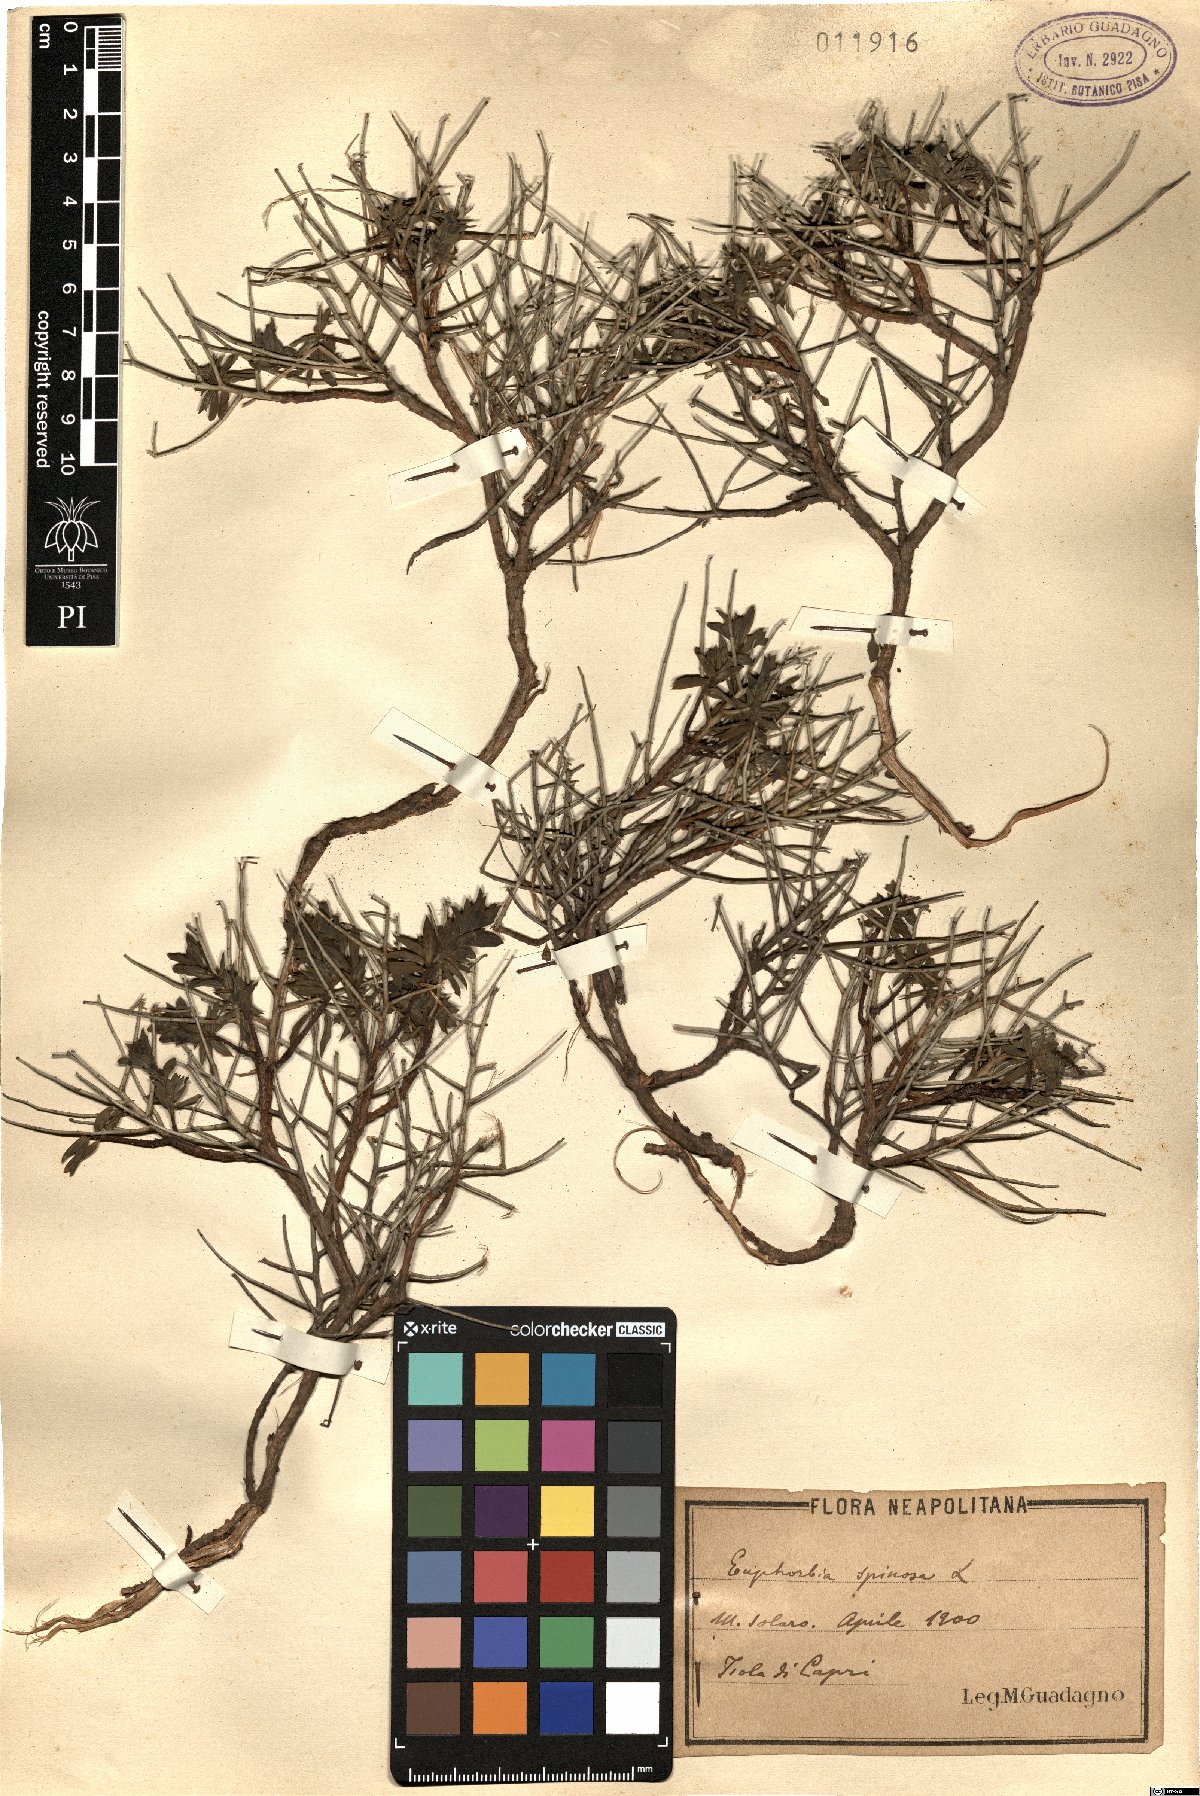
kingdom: Plantae
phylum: Tracheophyta
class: Magnoliopsida
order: Malpighiales
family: Euphorbiaceae
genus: Euphorbia
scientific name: Euphorbia spinosa
